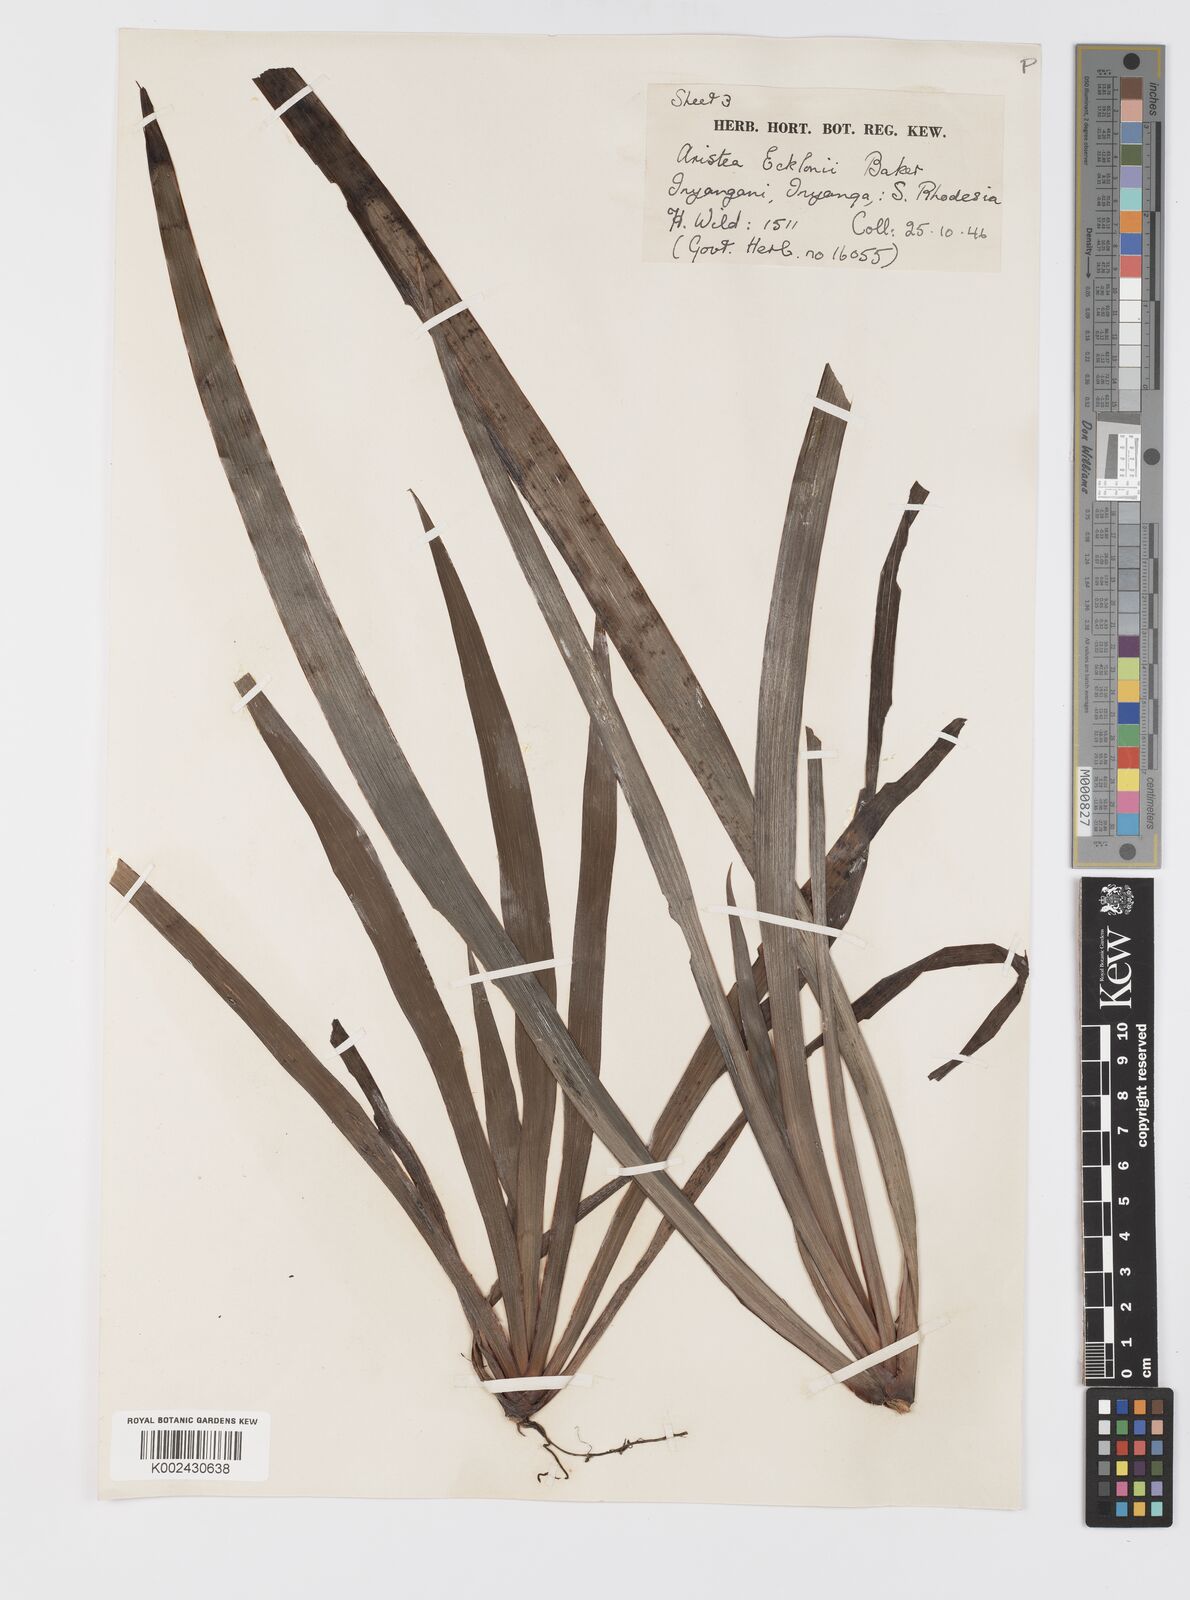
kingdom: Plantae
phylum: Tracheophyta
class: Liliopsida
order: Asparagales
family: Iridaceae
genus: Aristea
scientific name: Aristea ecklonii
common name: Blue corn-lily
